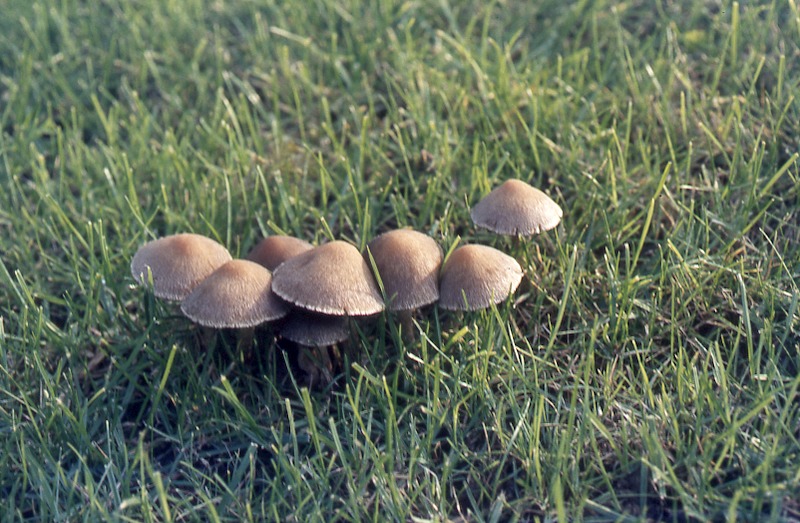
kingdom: Fungi
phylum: Basidiomycota
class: Agaricomycetes
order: Agaricales
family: Psathyrellaceae
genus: Lacrymaria
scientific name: Lacrymaria lacrymabunda
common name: Weeping widow
